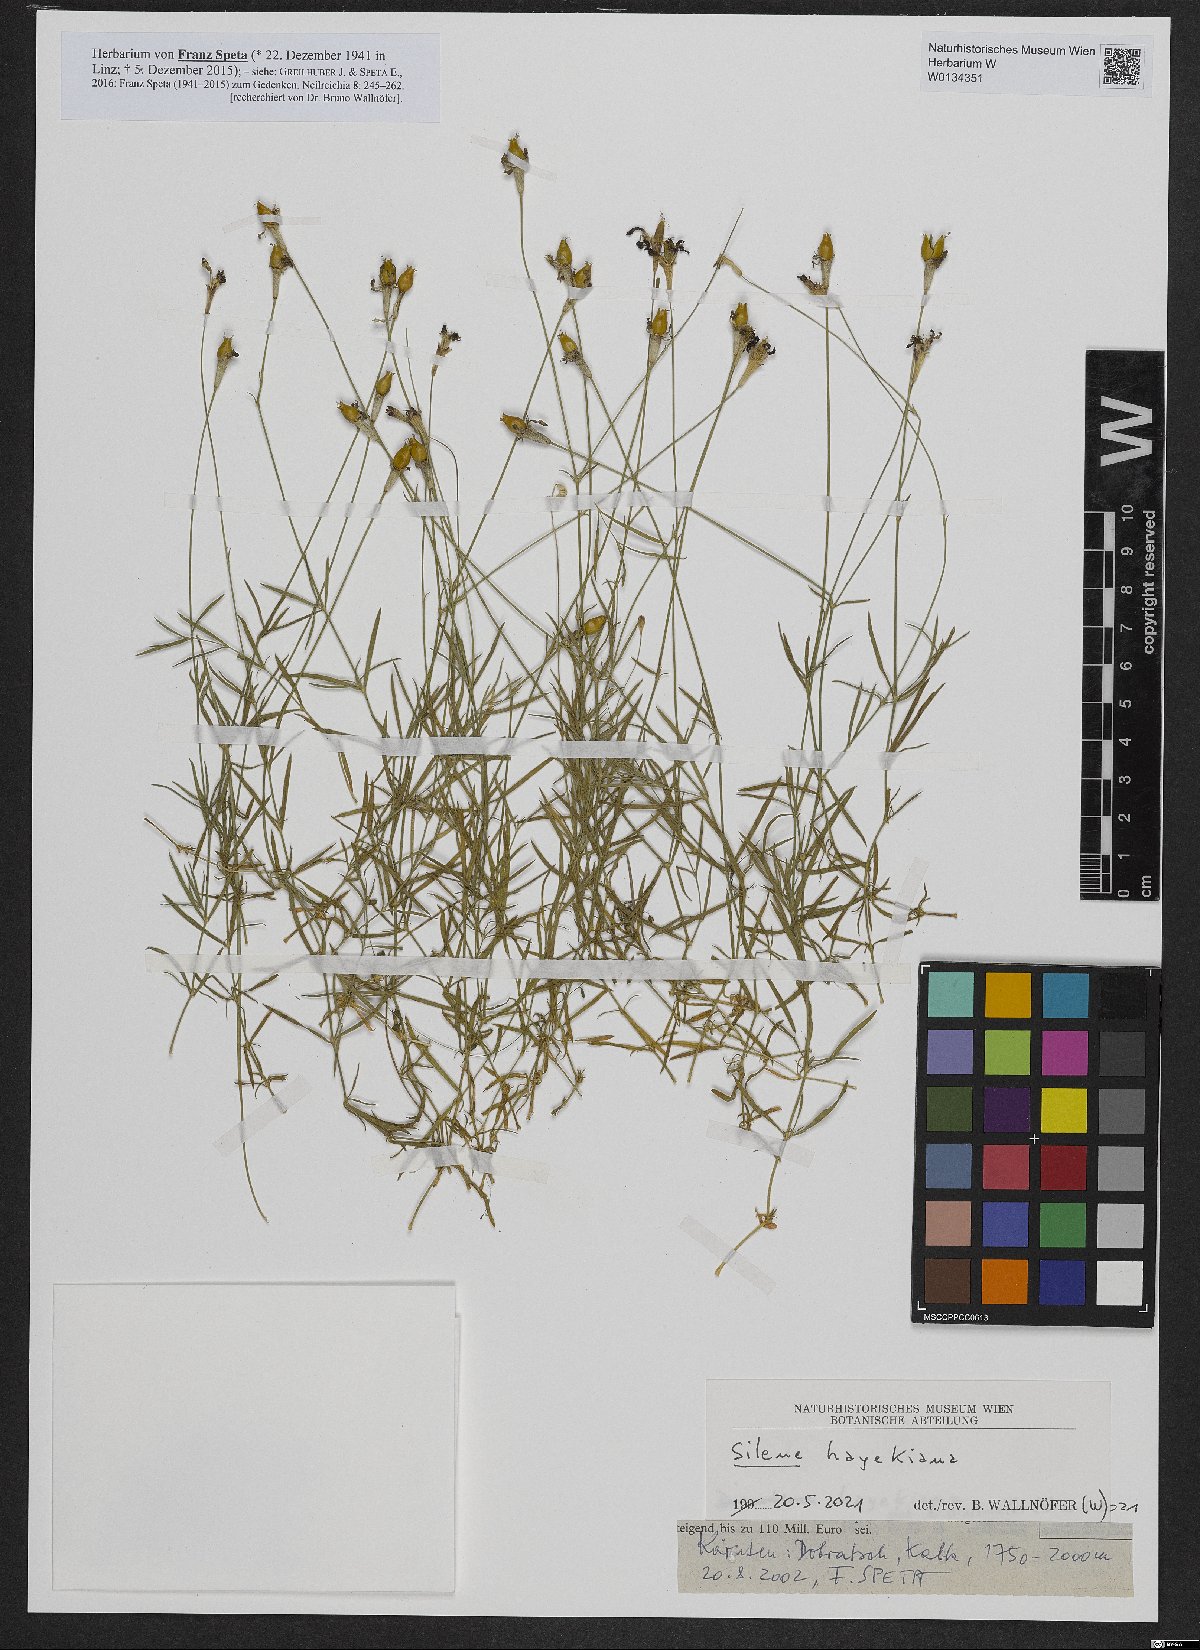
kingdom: Plantae
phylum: Tracheophyta
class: Magnoliopsida
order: Caryophyllales
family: Caryophyllaceae
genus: Silene
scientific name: Silene hayekiana
